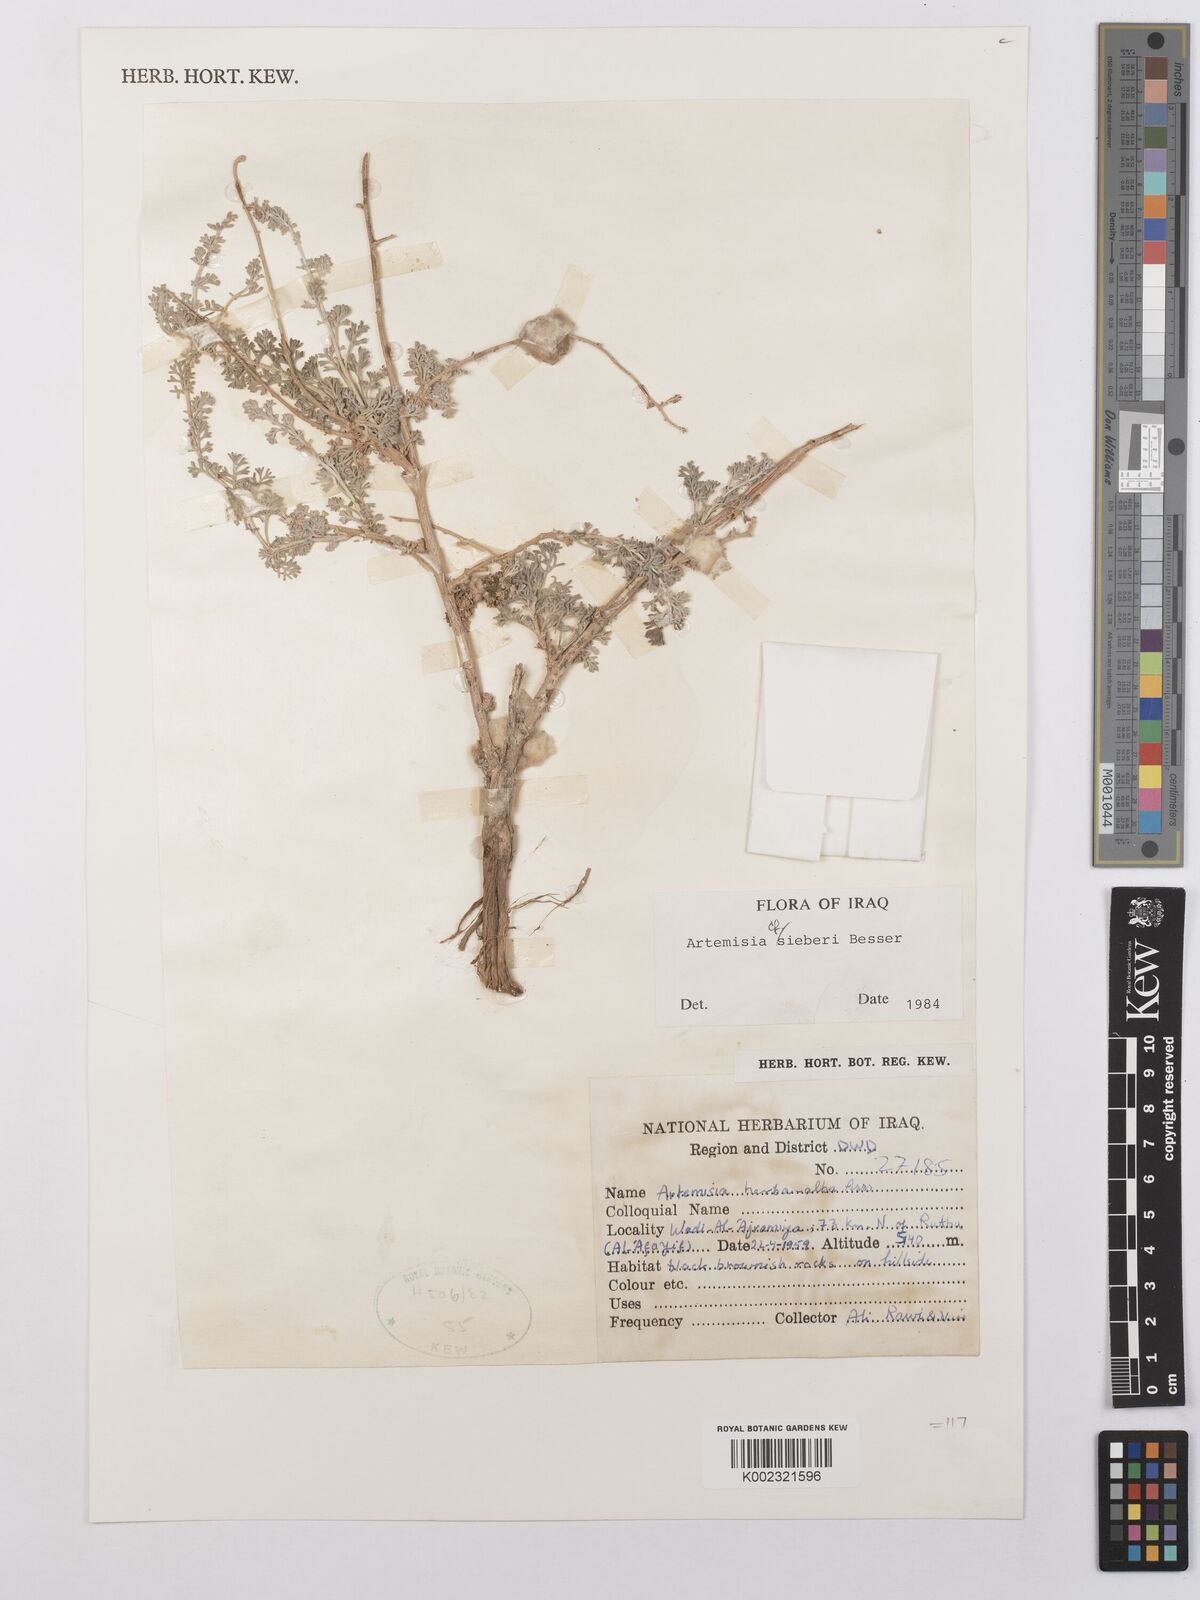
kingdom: Plantae
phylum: Tracheophyta
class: Magnoliopsida
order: Asterales
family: Asteraceae
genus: Artemisia
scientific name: Artemisia sieberi
